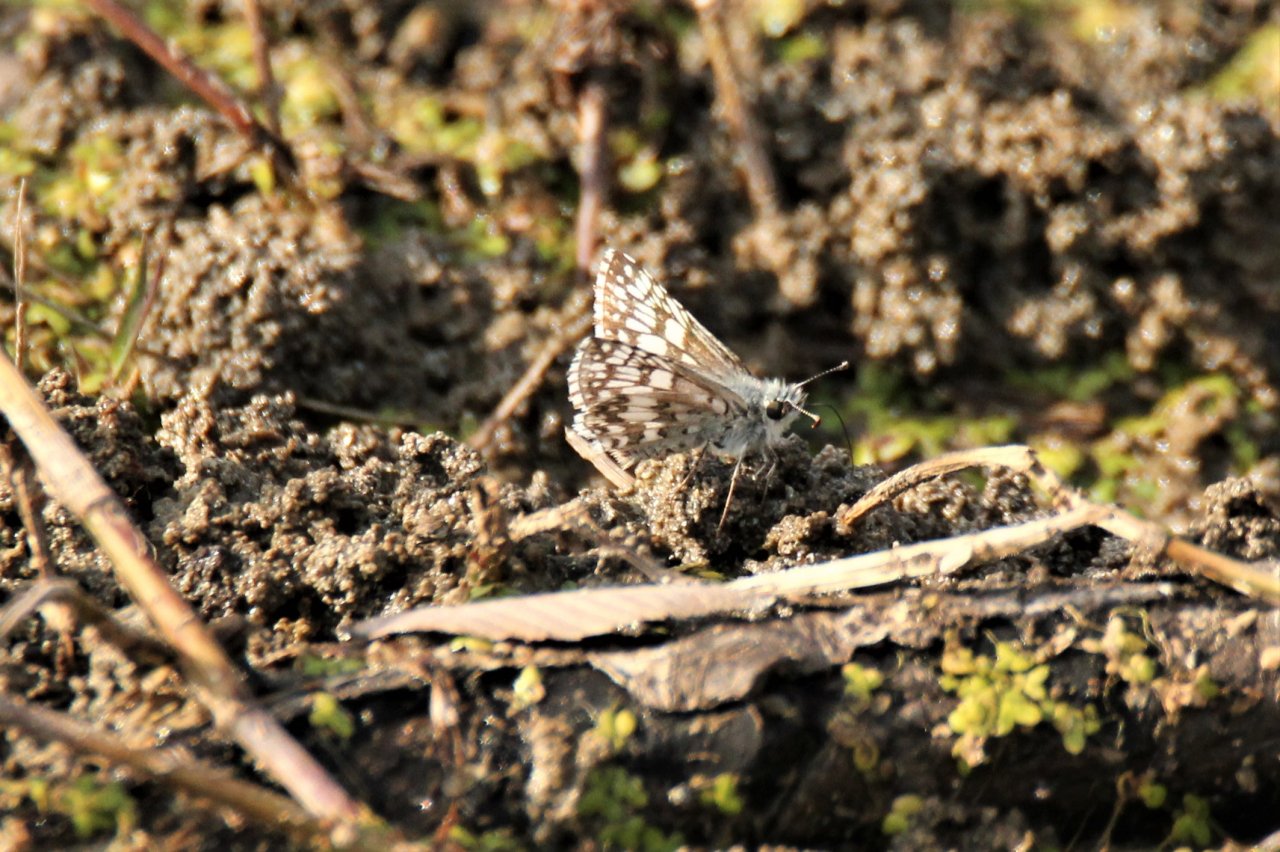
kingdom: Animalia
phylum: Arthropoda
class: Insecta
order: Lepidoptera
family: Hesperiidae
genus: Pyrgus
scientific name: Pyrgus
